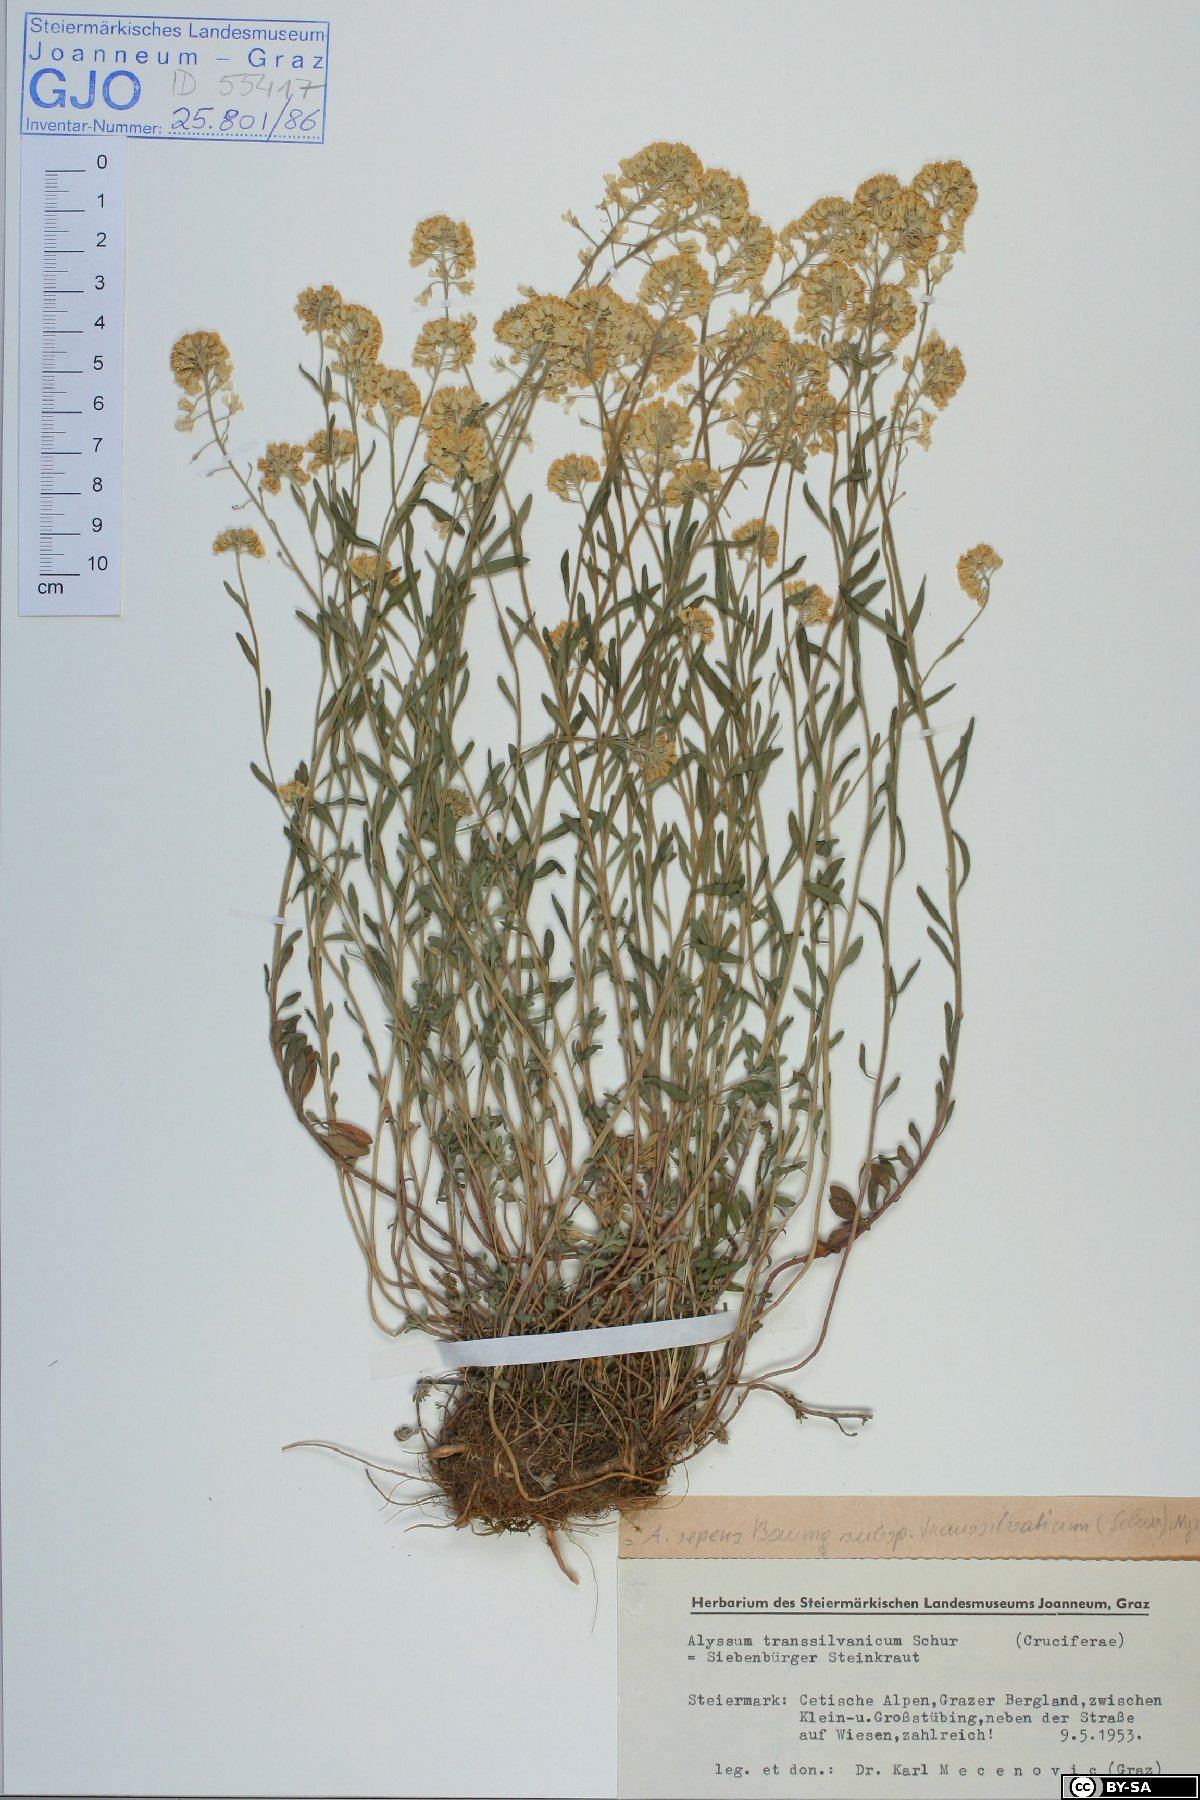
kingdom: Plantae
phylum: Tracheophyta
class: Magnoliopsida
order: Brassicales
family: Brassicaceae
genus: Alyssum
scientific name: Alyssum repens
